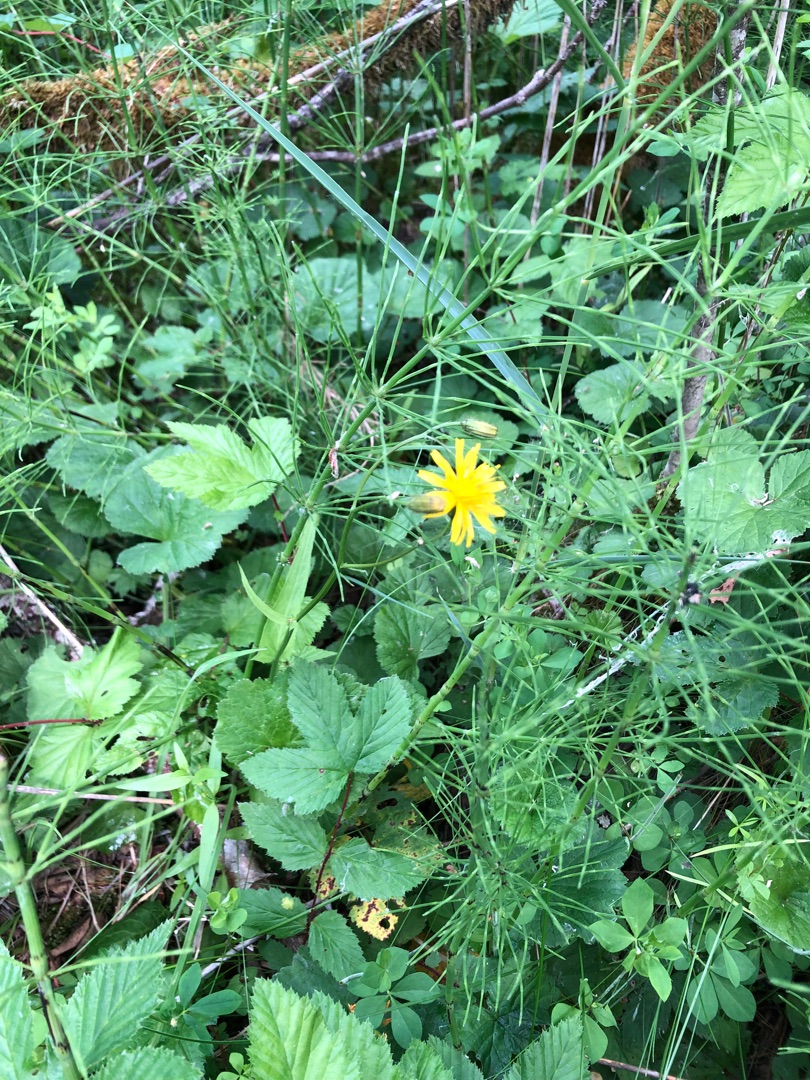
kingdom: Plantae
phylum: Tracheophyta
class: Magnoliopsida
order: Asterales
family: Asteraceae
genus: Crepis
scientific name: Crepis paludosa
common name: Kær-høgeskæg
